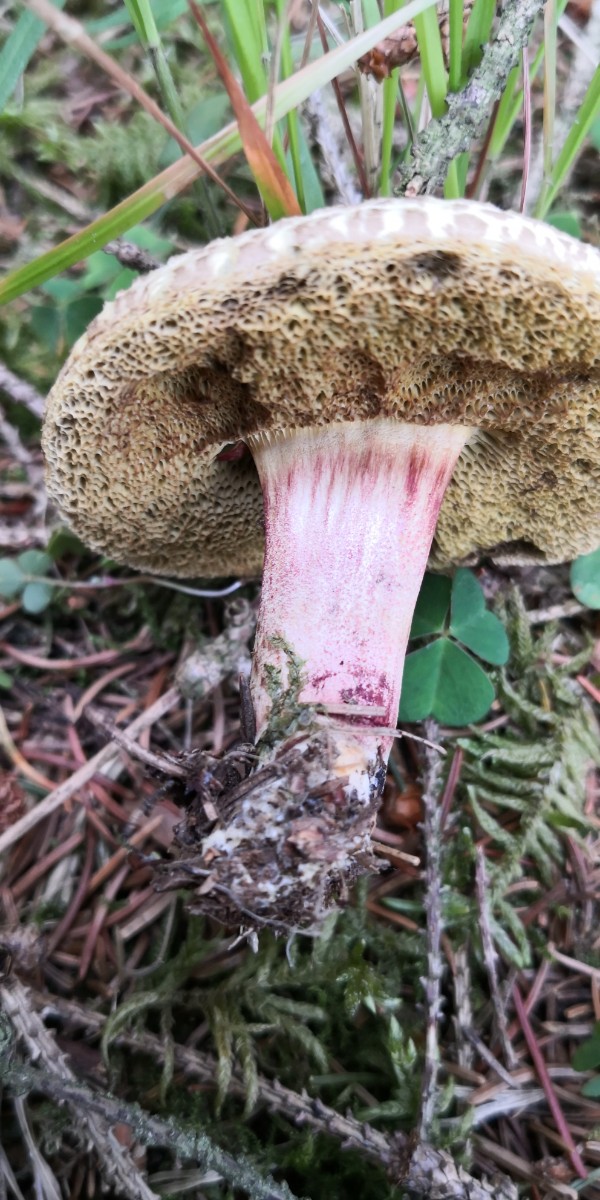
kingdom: Fungi
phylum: Basidiomycota
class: Agaricomycetes
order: Boletales
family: Boletaceae
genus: Xerocomellus
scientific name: Xerocomellus chrysenteron
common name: rødsprukken rørhat
